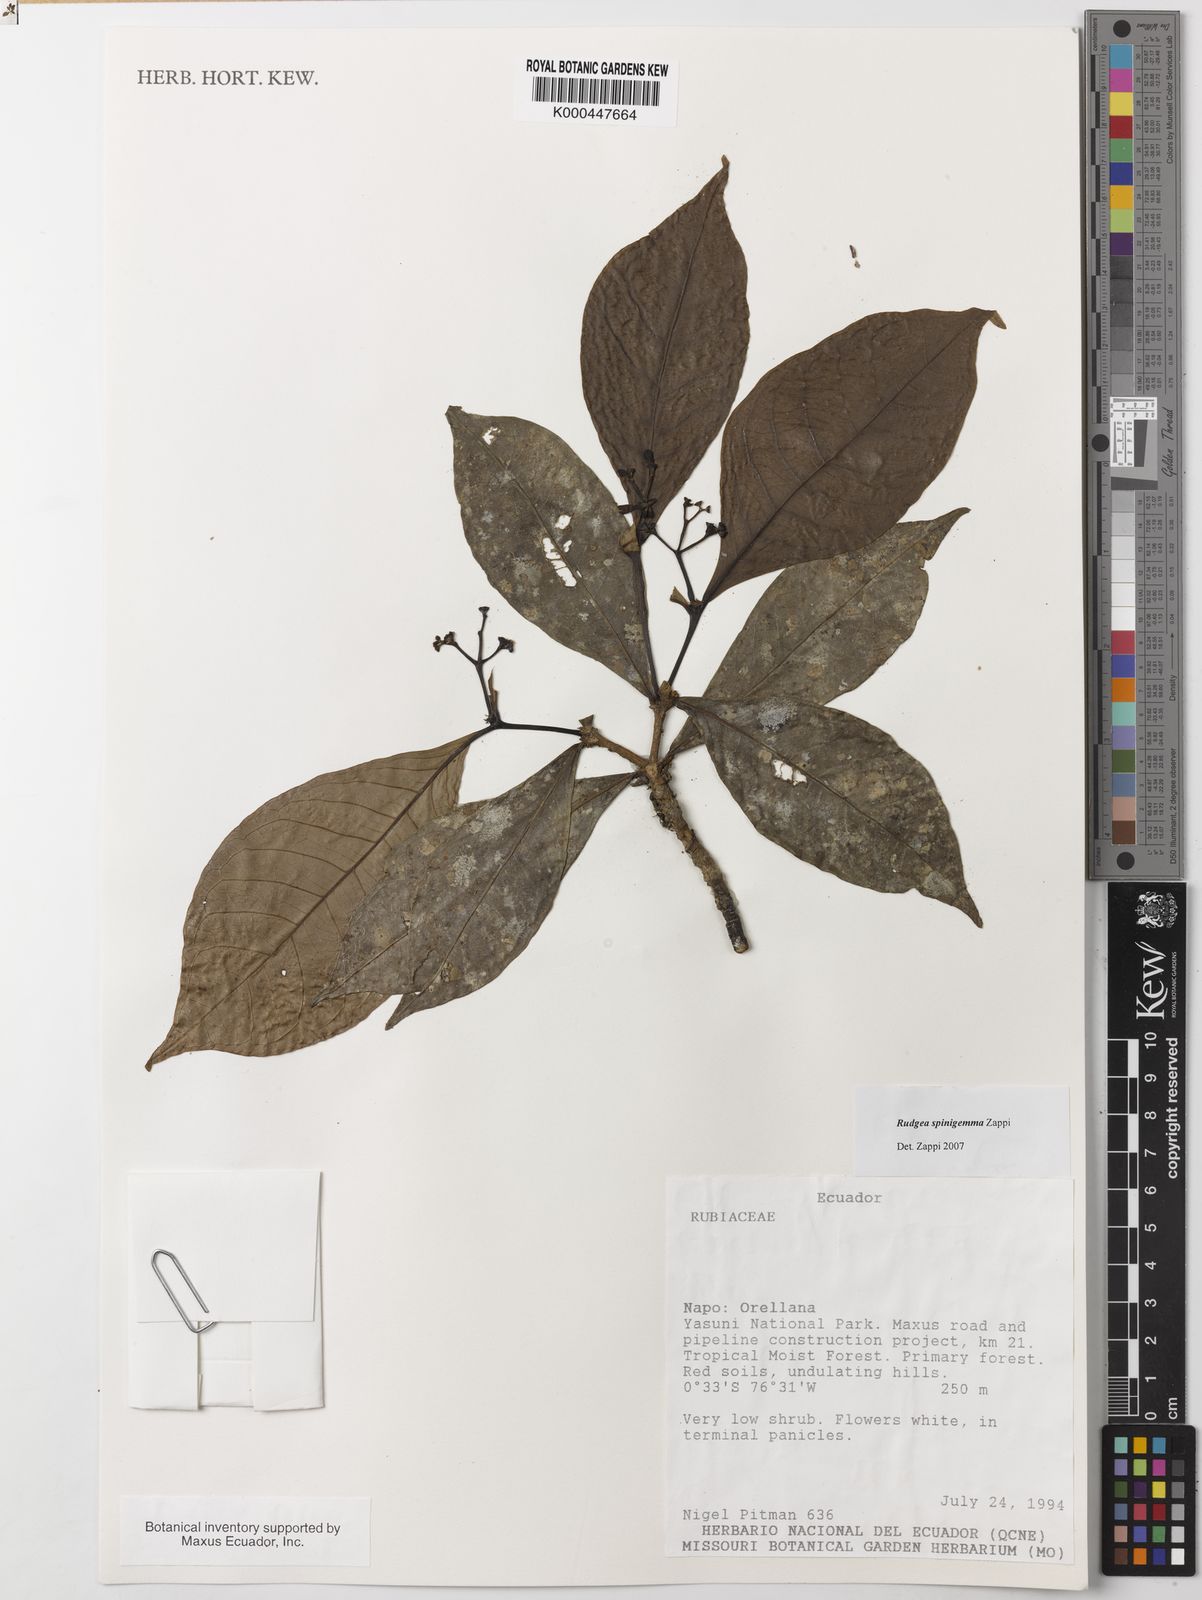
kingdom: Plantae
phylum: Tracheophyta
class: Magnoliopsida
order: Gentianales
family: Rubiaceae
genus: Rudgea
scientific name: Rudgea spinigemma
